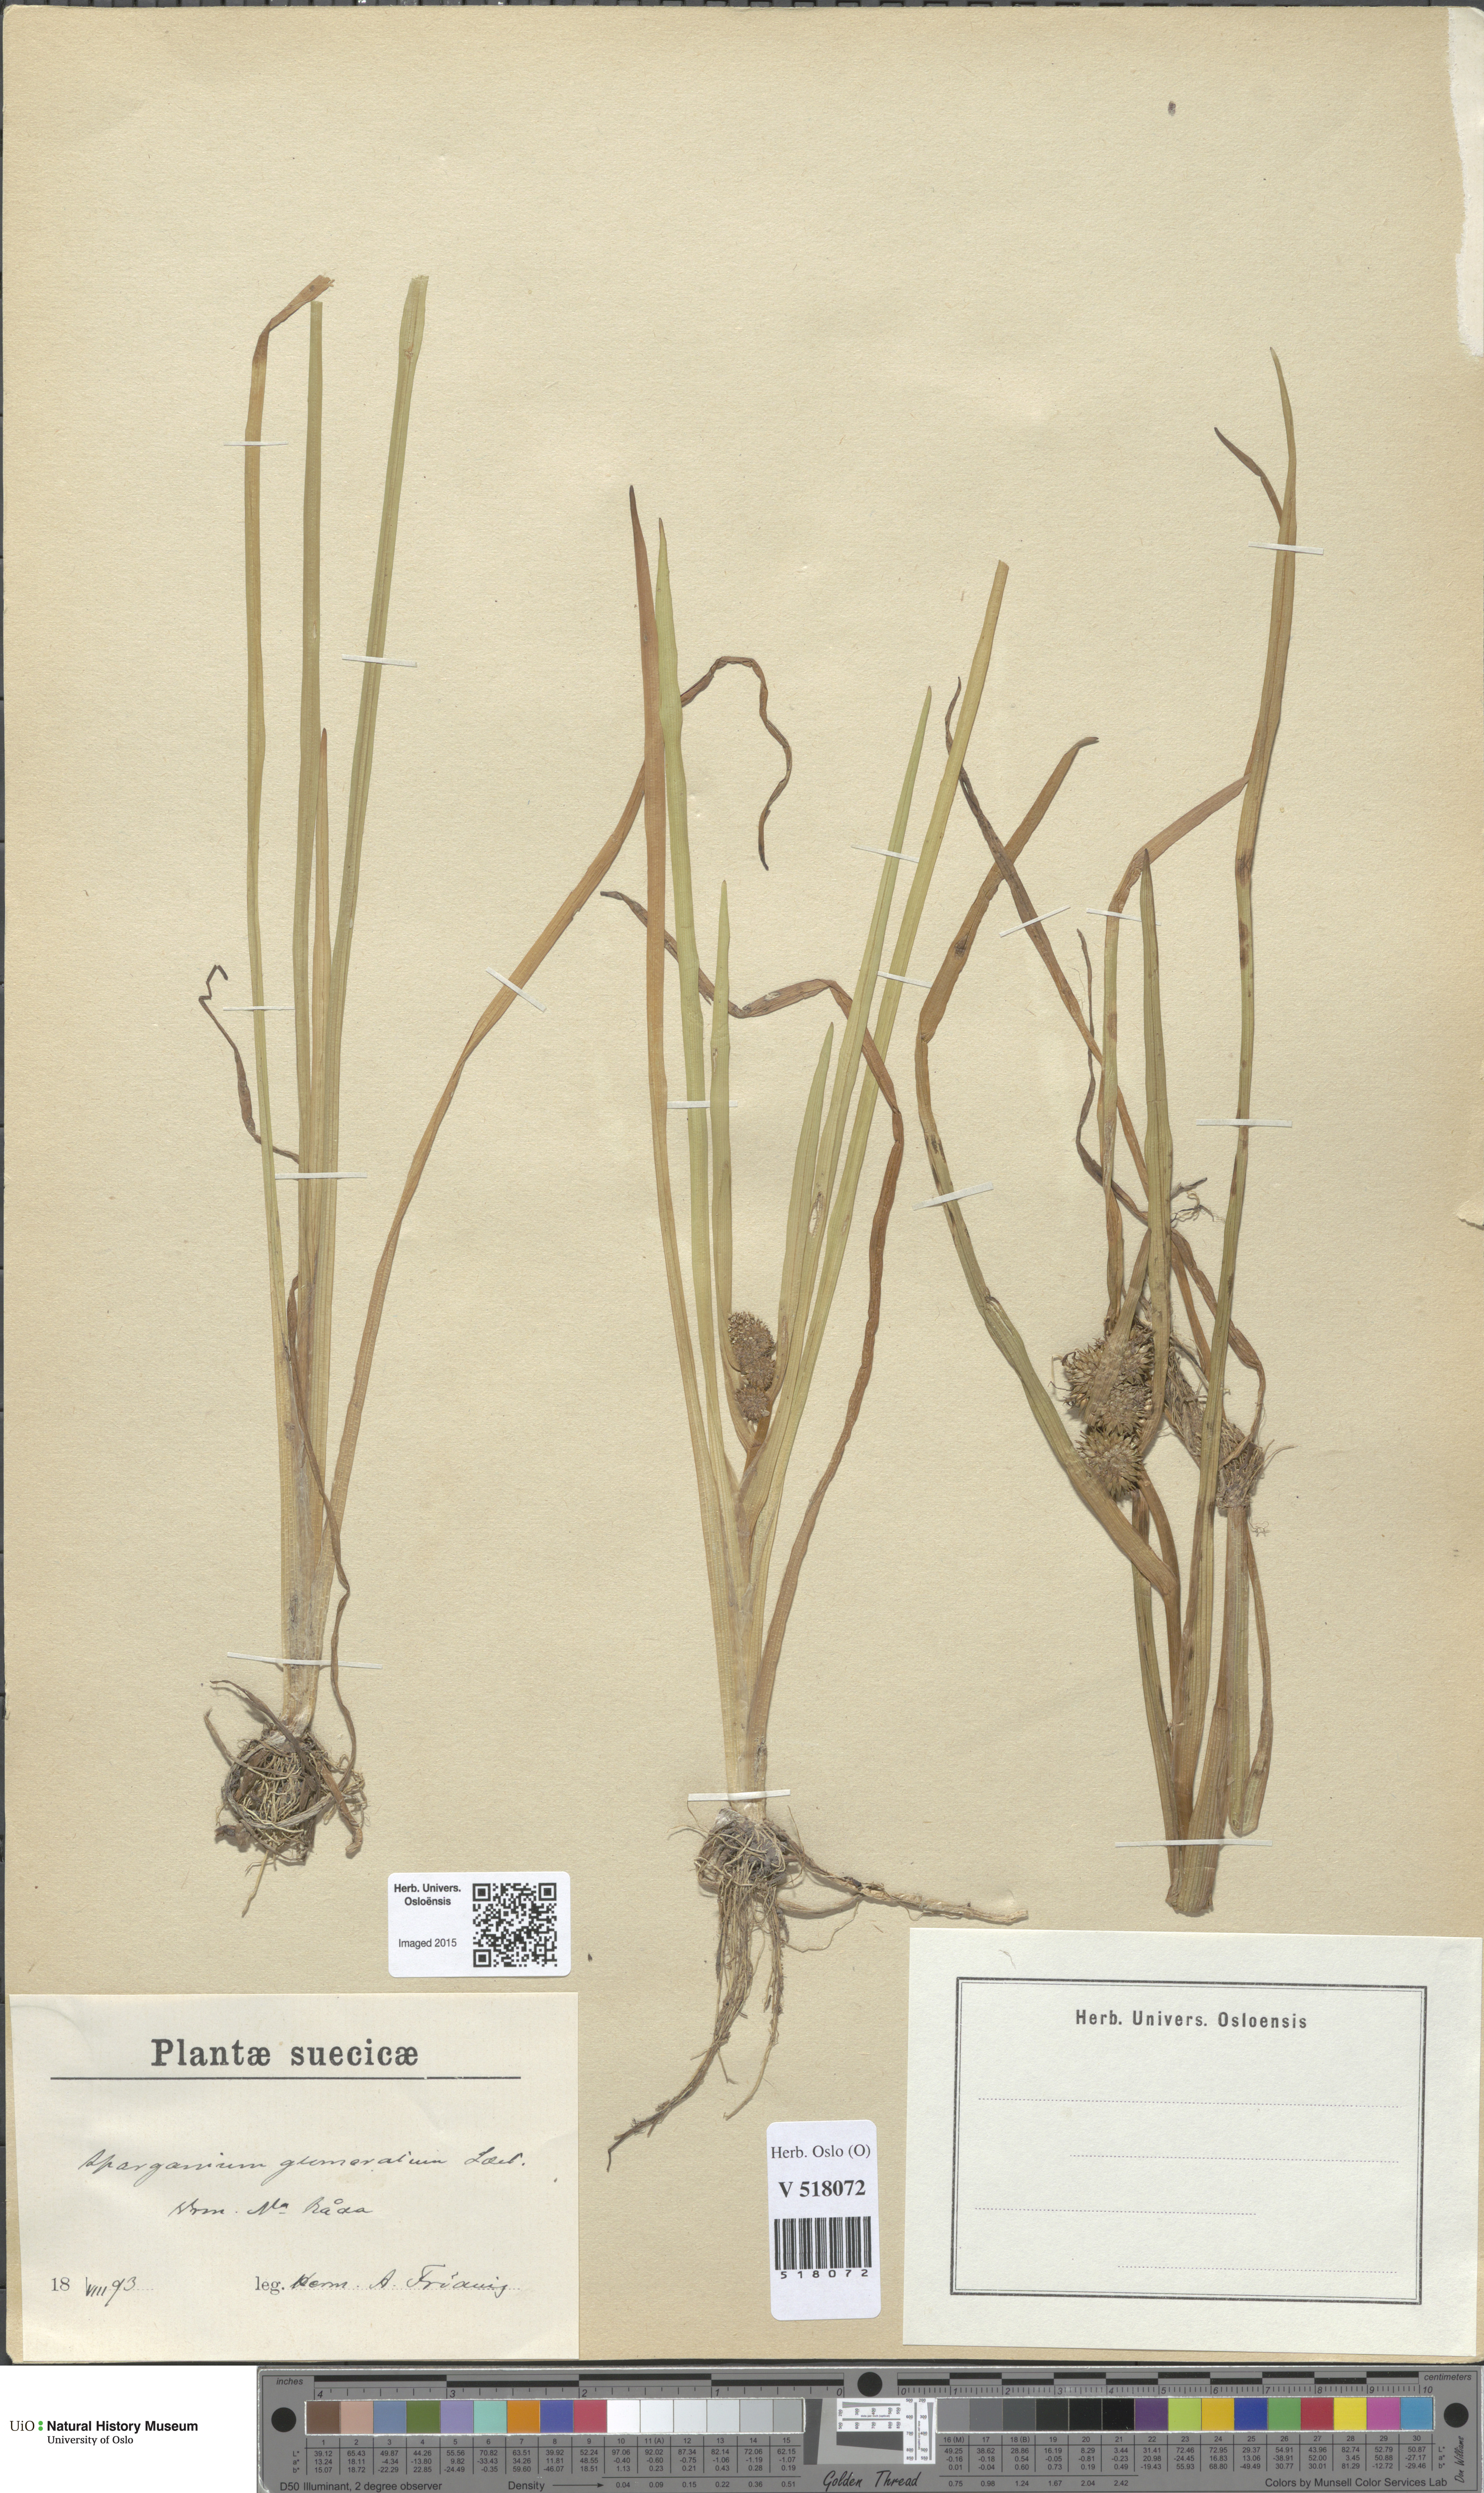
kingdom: Plantae
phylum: Tracheophyta
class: Liliopsida
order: Poales
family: Typhaceae
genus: Sparganium
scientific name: Sparganium glomeratum
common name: Clustered burreed
